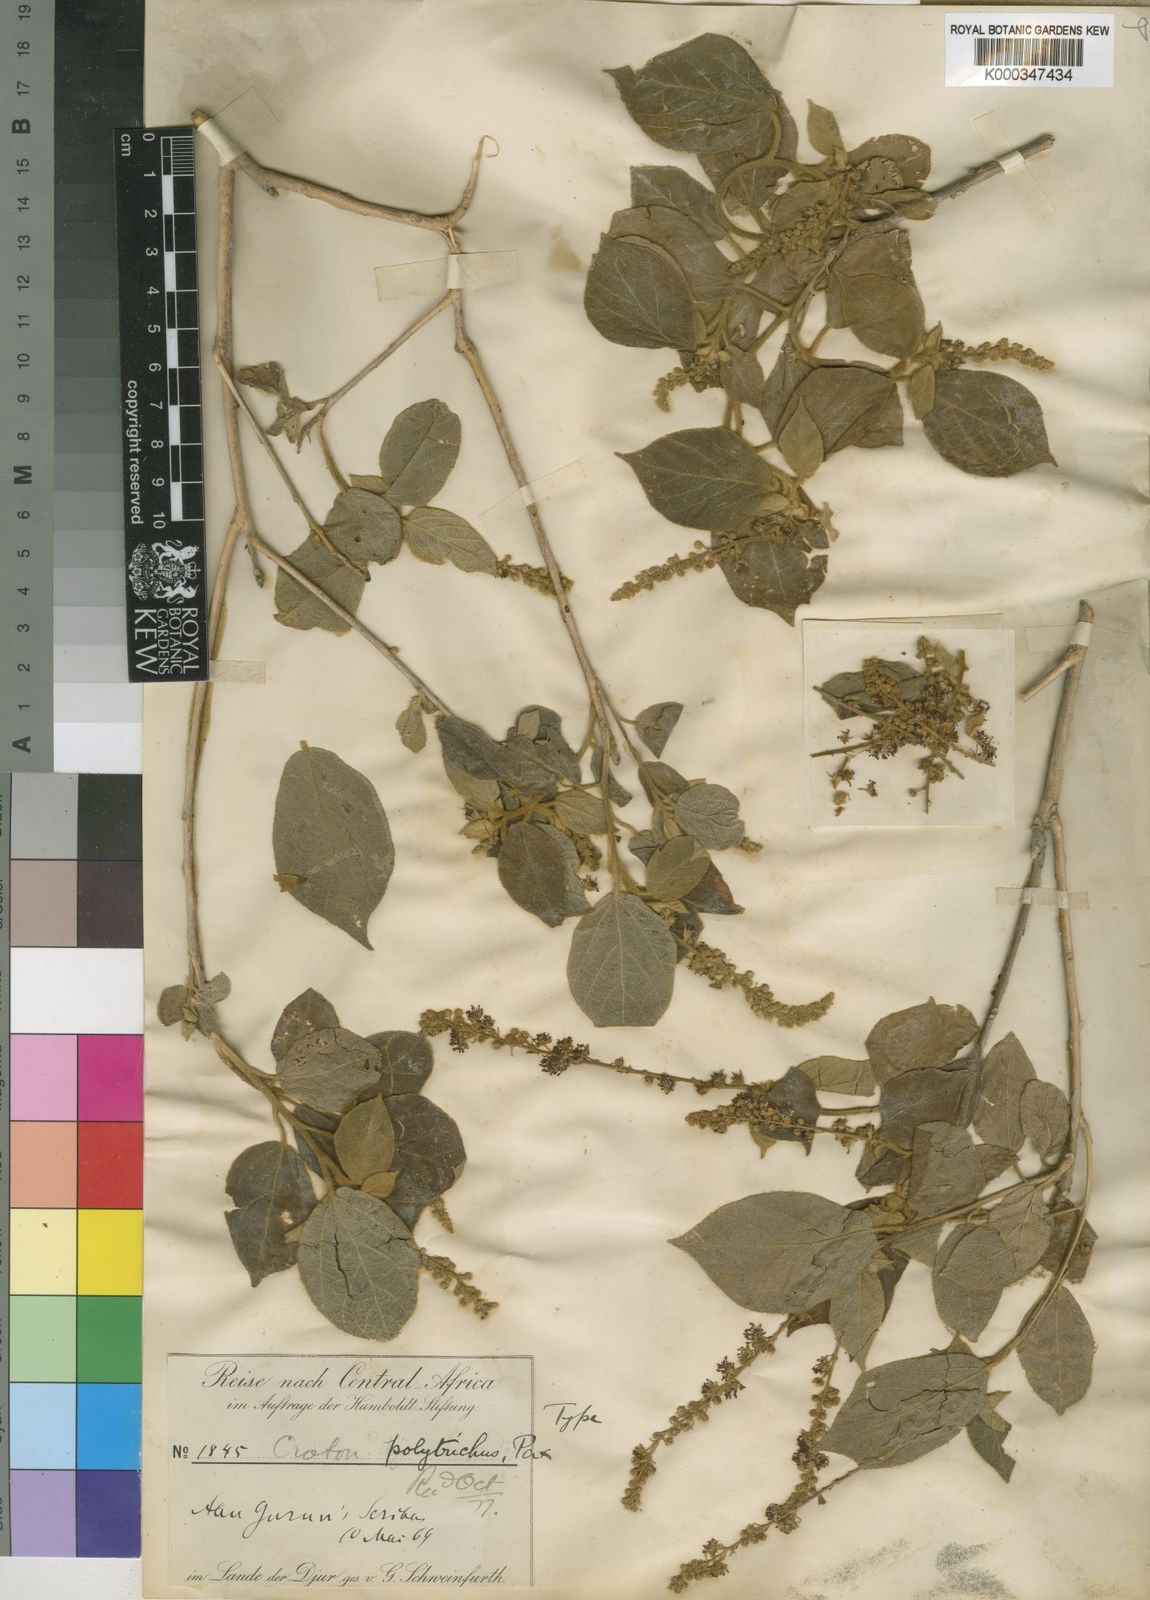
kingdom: Plantae
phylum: Tracheophyta
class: Magnoliopsida
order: Malpighiales
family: Euphorbiaceae
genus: Croton
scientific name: Croton polytrichus
